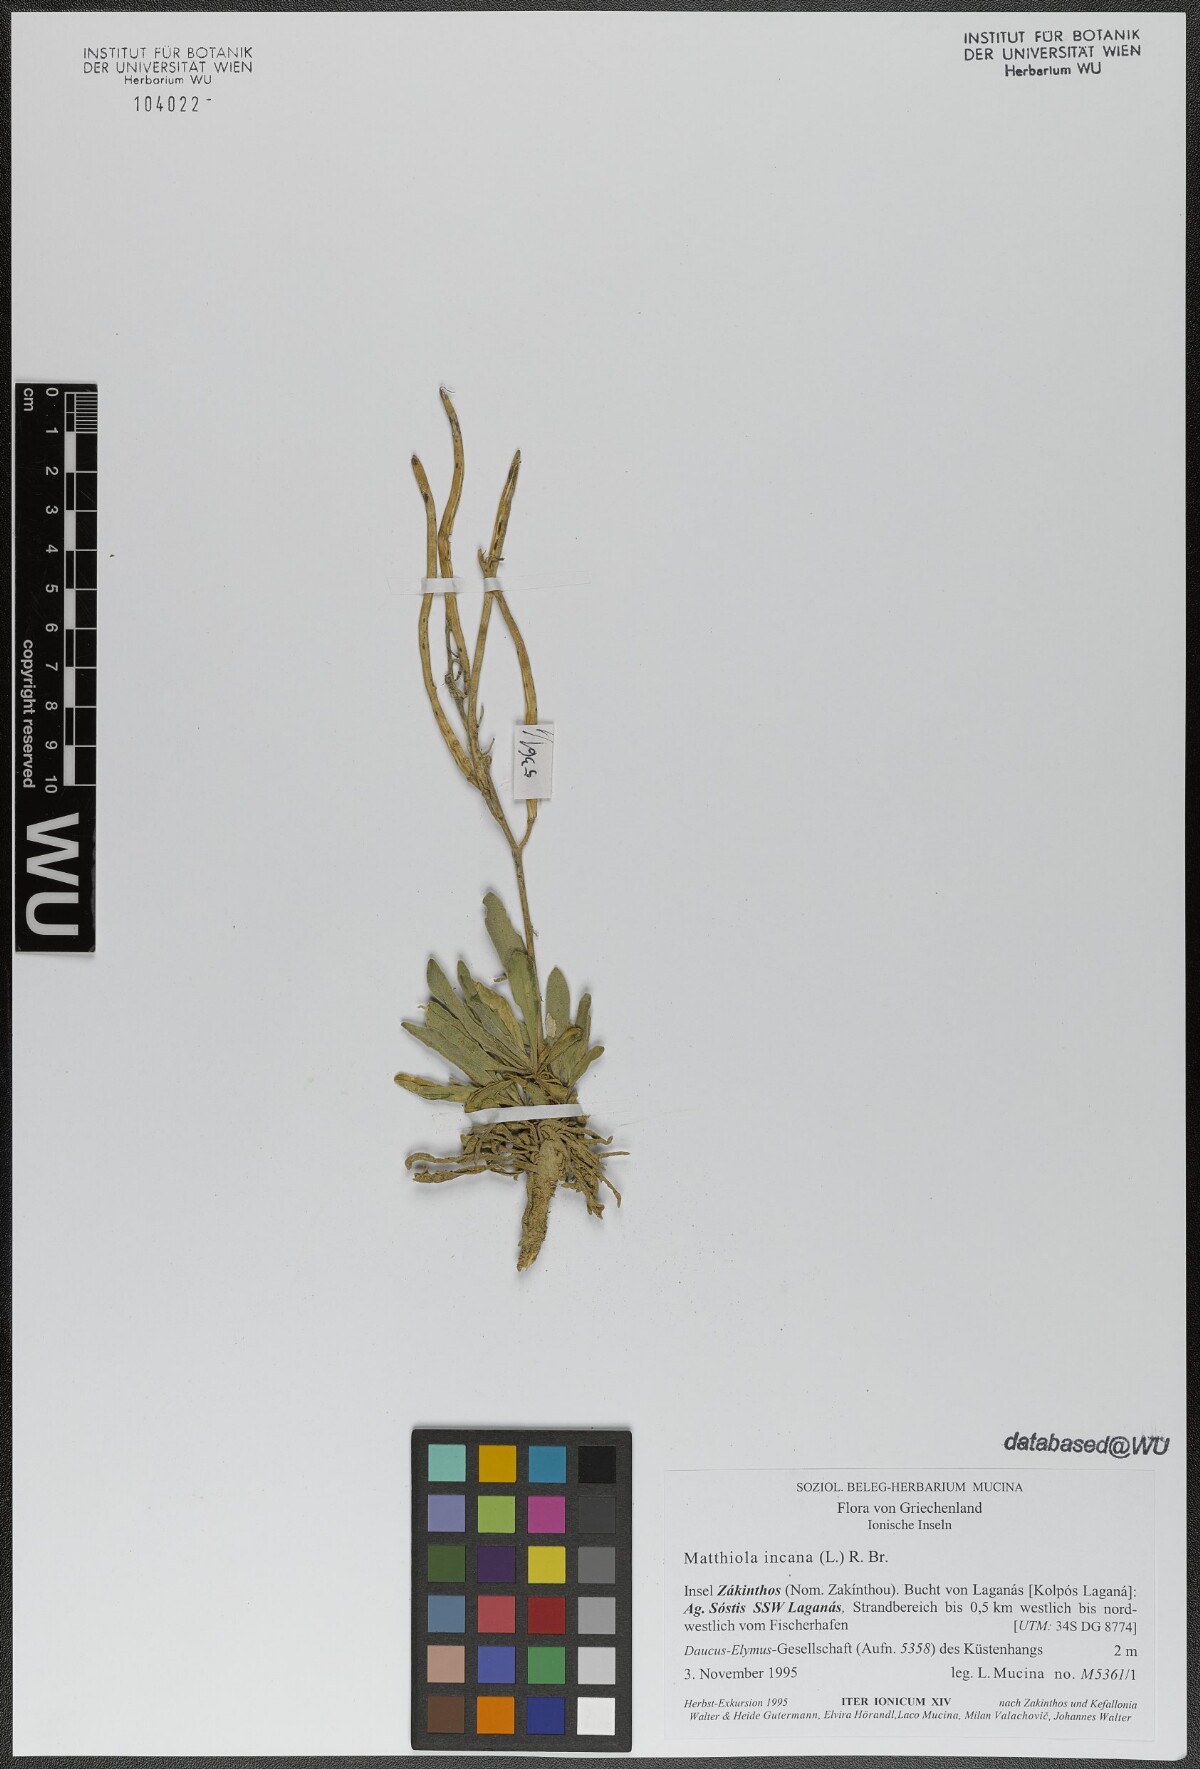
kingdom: Plantae
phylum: Tracheophyta
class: Magnoliopsida
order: Brassicales
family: Brassicaceae
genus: Matthiola
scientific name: Matthiola incana
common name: Hoary stock
